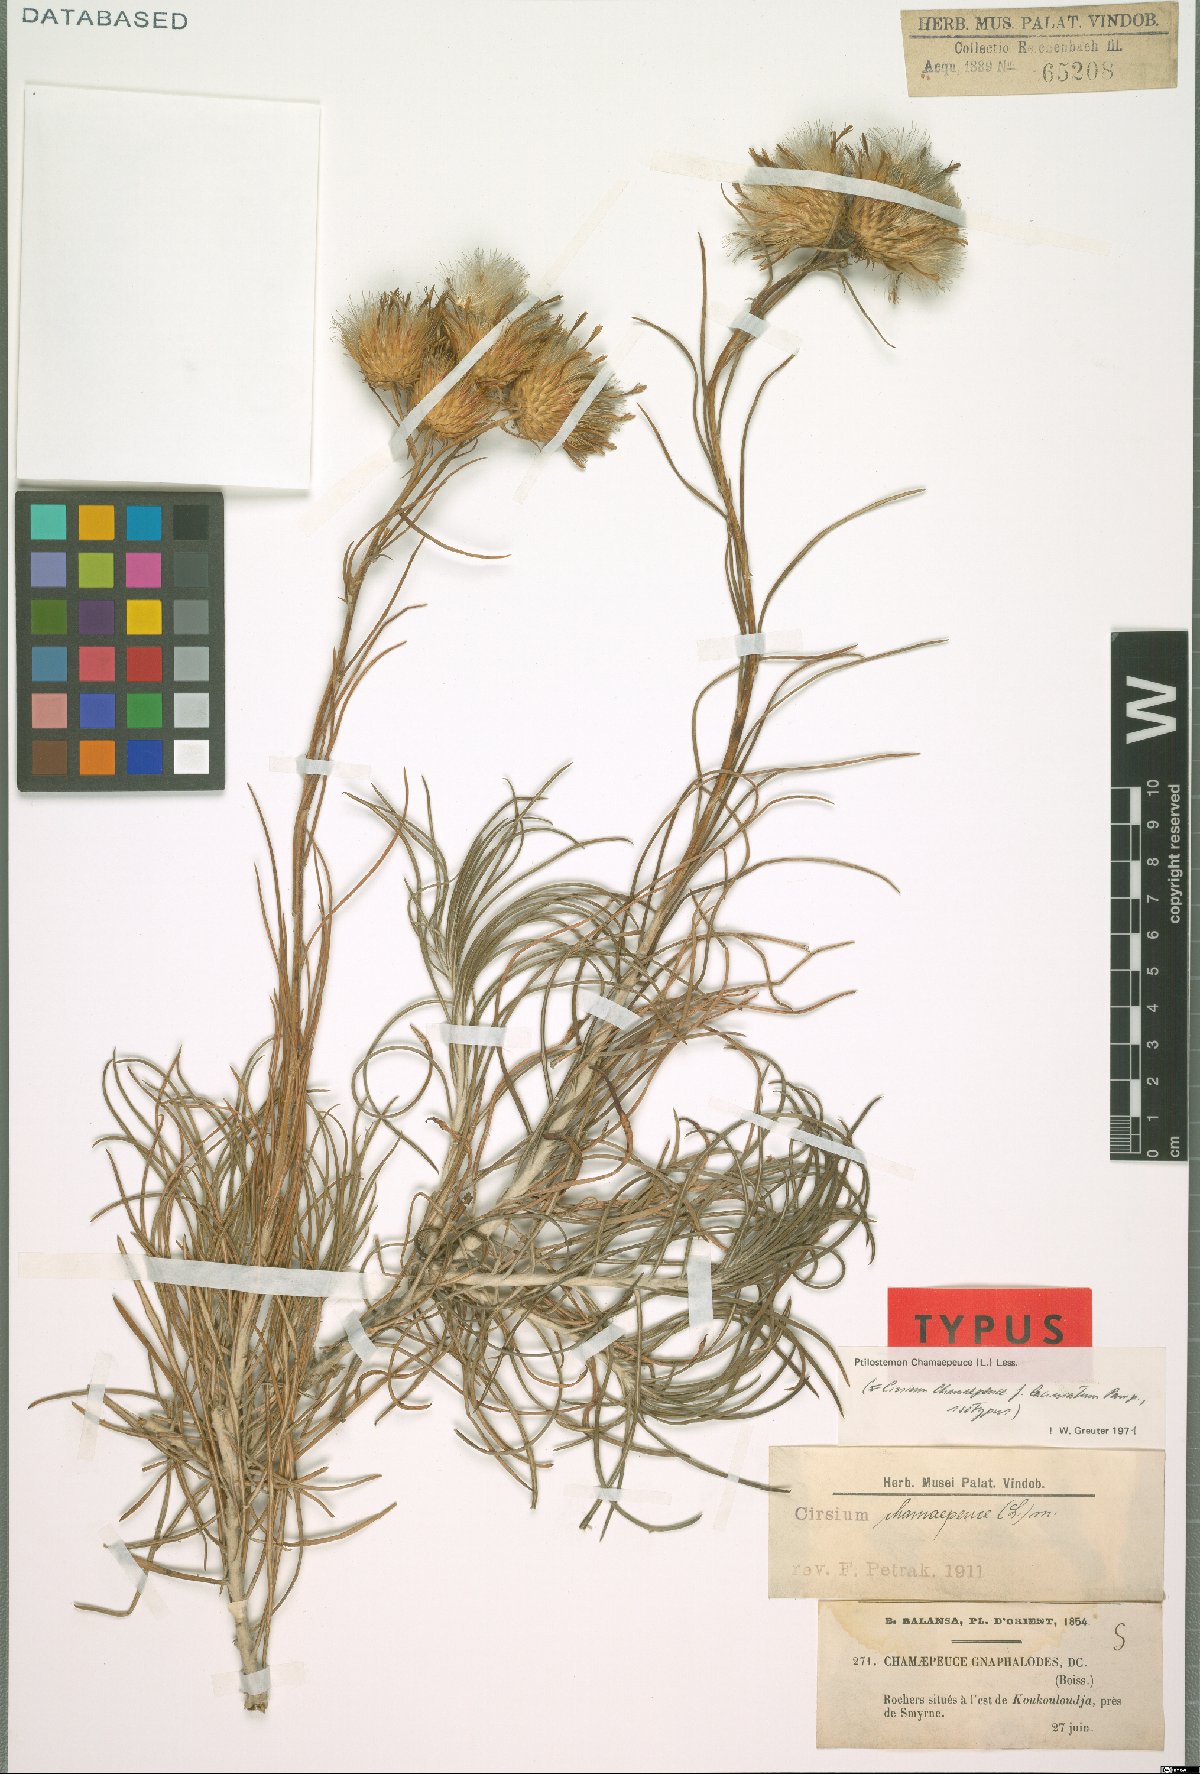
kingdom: Plantae
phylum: Tracheophyta
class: Magnoliopsida
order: Asterales
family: Asteraceae
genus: Ptilostemon
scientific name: Ptilostemon chamaepeuce
